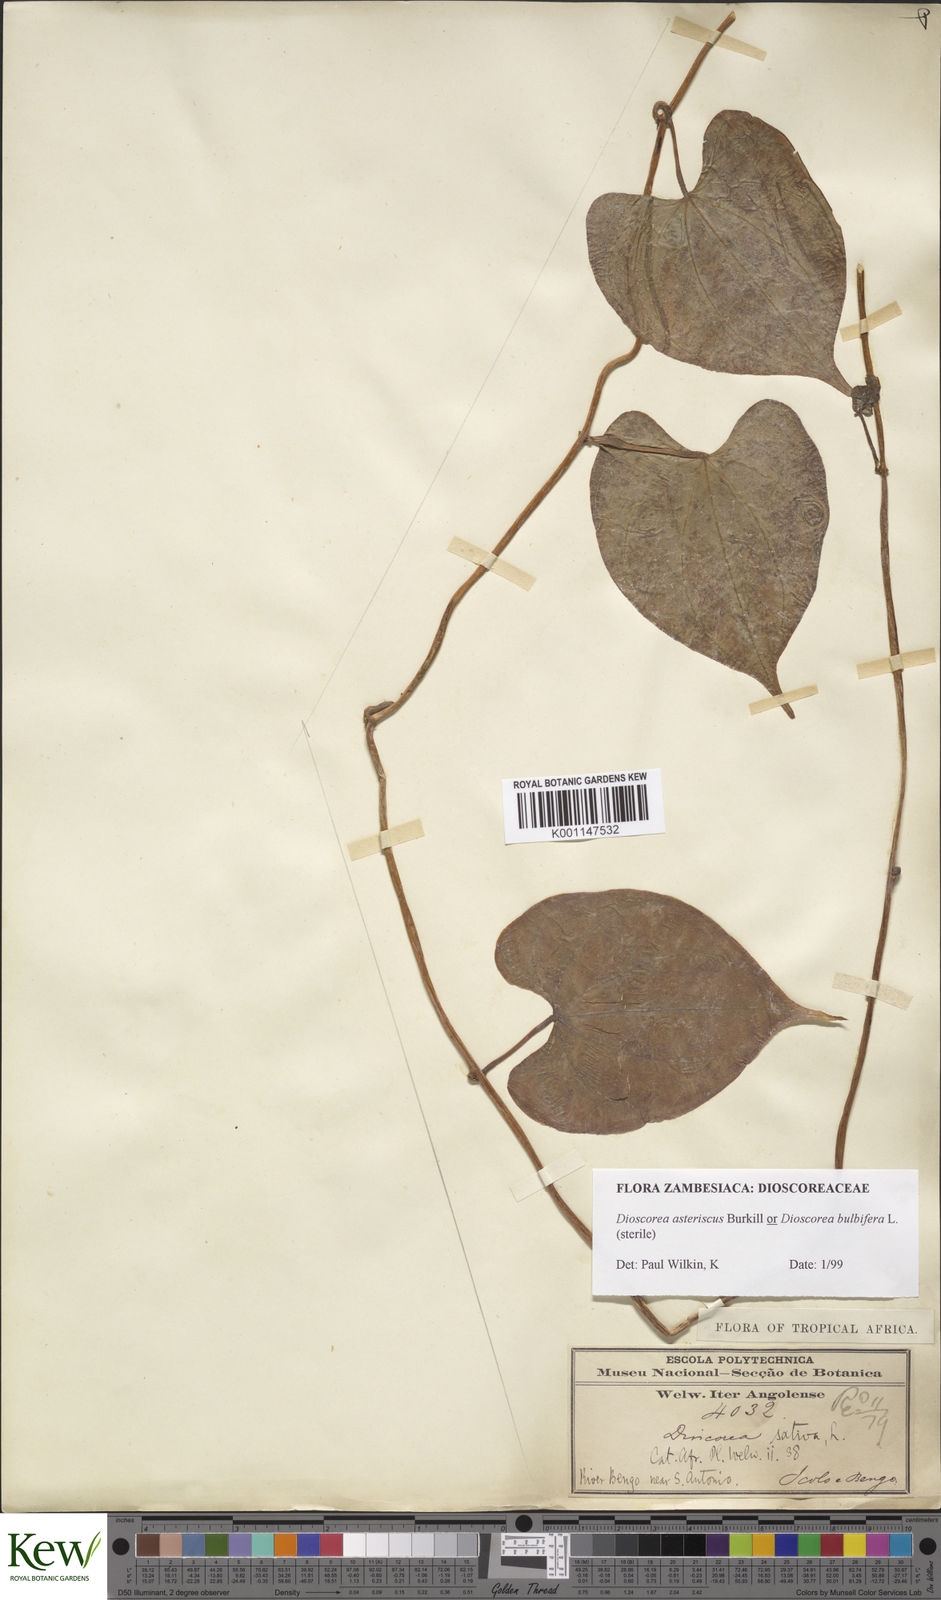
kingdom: Plantae
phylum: Tracheophyta
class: Liliopsida
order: Dioscoreales
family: Dioscoreaceae
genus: Dioscorea
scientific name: Dioscorea bulbifera
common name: Air yam
